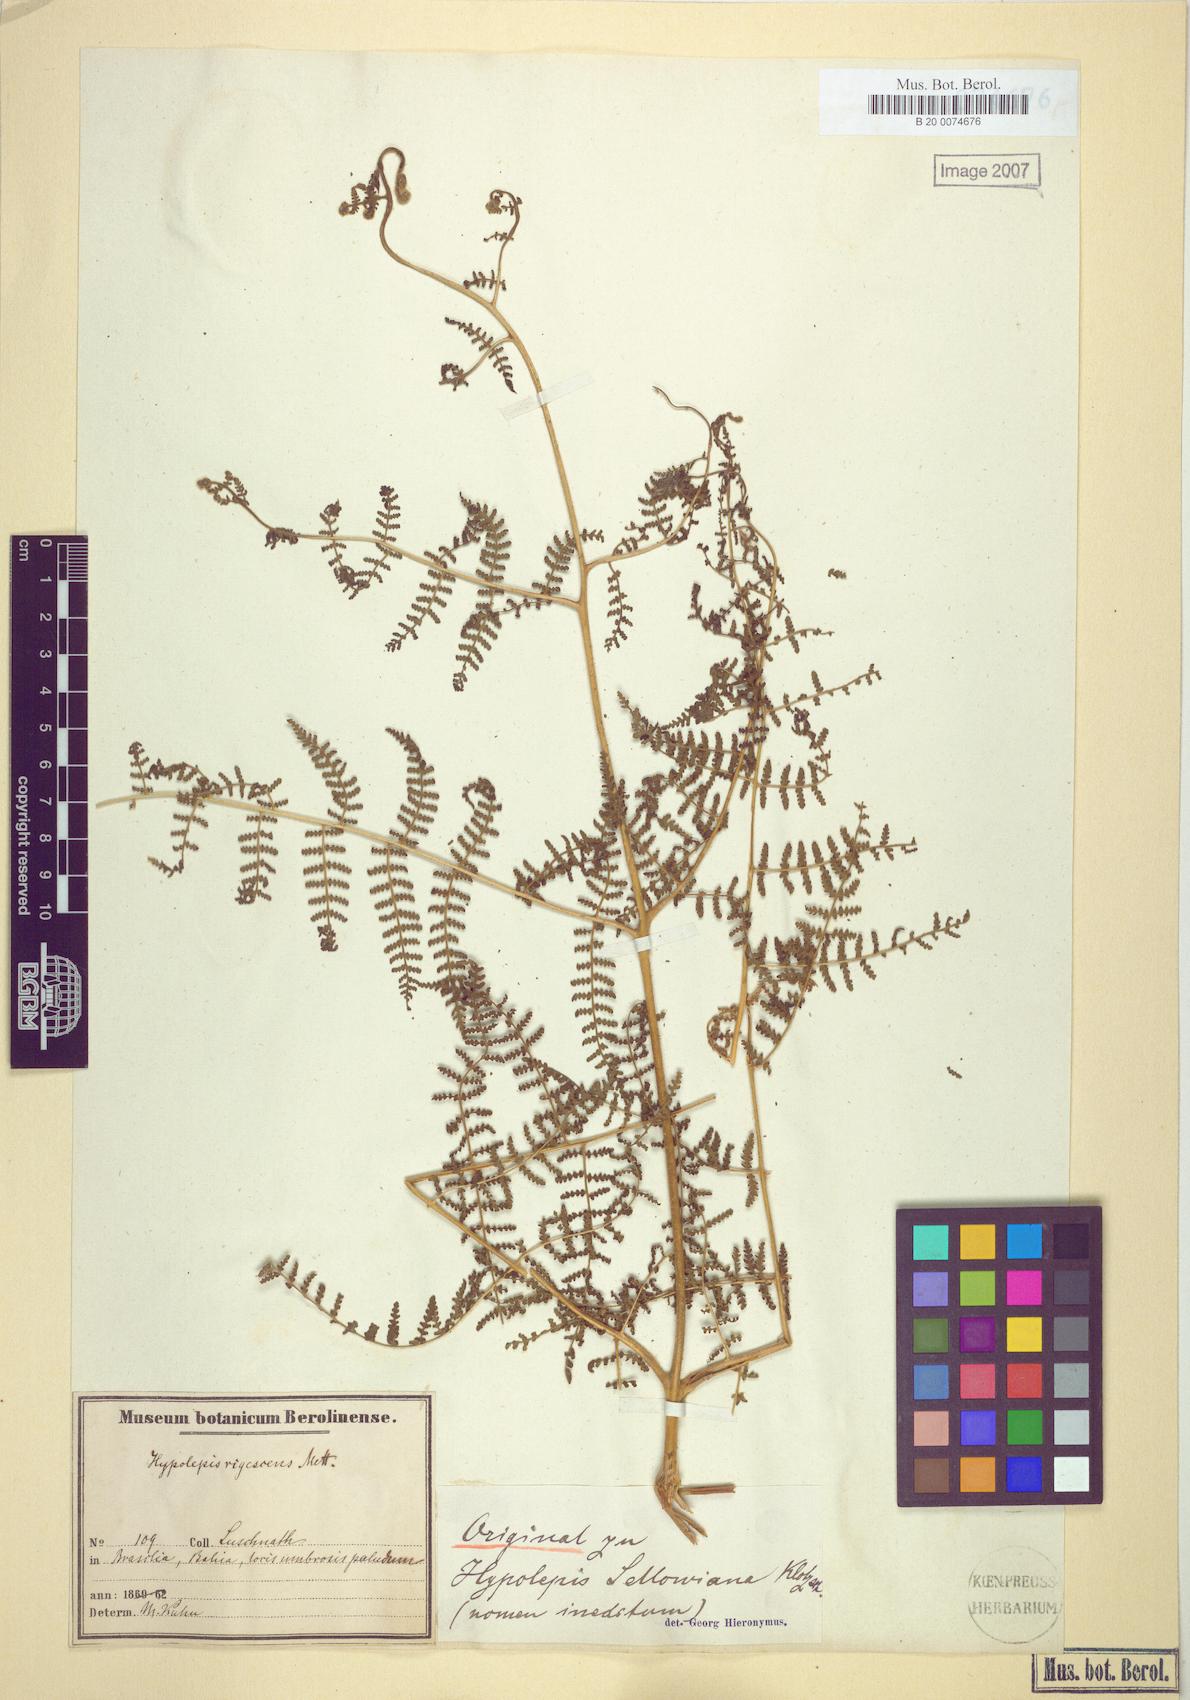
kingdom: Plantae
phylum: Tracheophyta
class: Polypodiopsida
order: Polypodiales
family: Dennstaedtiaceae
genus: Hypolepis
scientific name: Hypolepis rigescens
